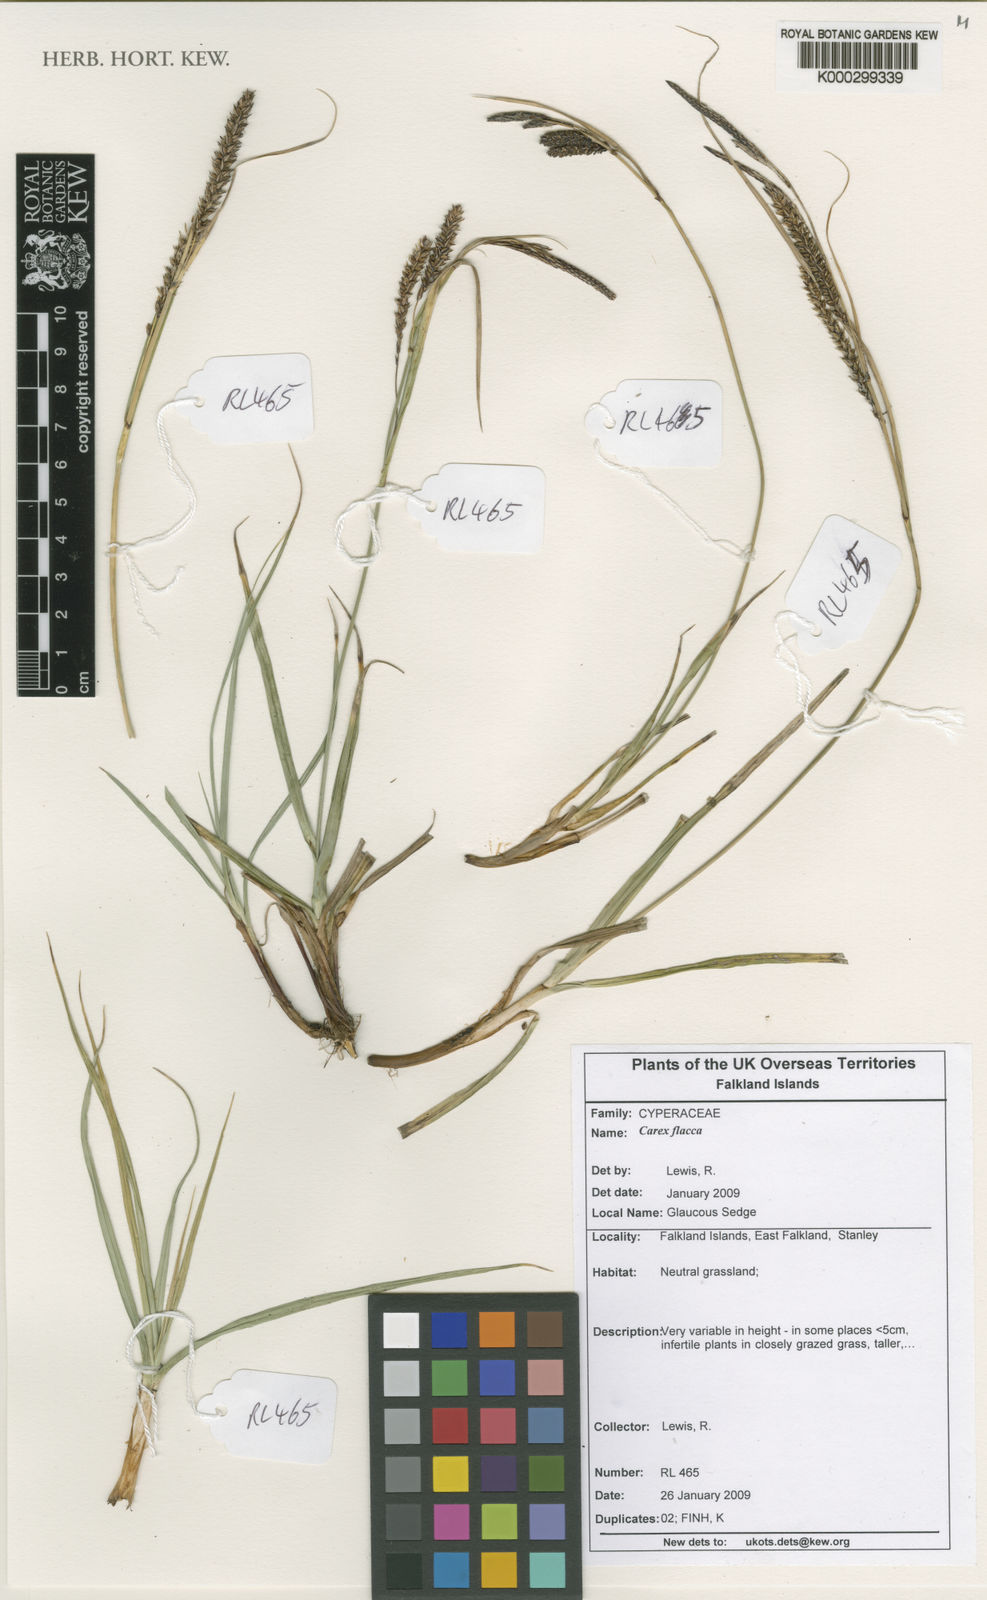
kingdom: Plantae
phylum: Tracheophyta
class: Liliopsida
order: Poales
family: Cyperaceae
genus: Carex
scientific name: Carex flacca
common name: Glaucous sedge
